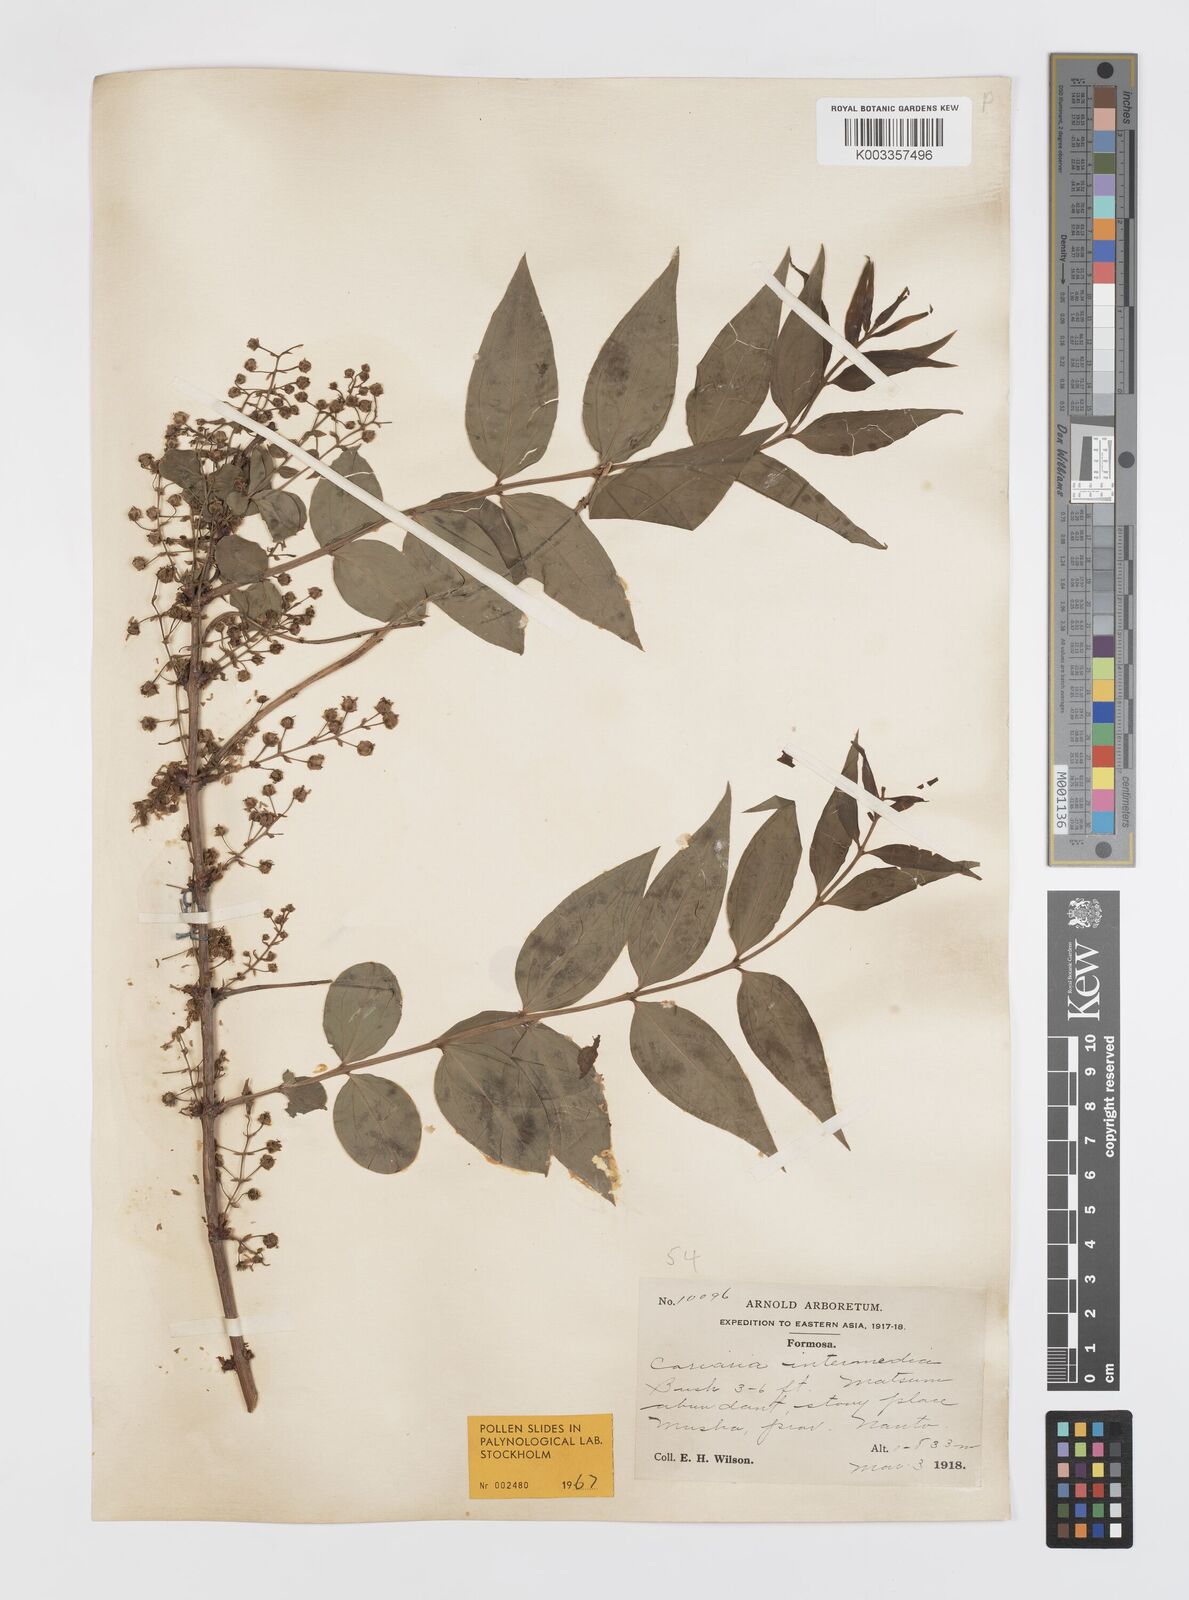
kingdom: Plantae
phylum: Tracheophyta
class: Magnoliopsida
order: Cucurbitales
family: Coriariaceae
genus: Coriaria
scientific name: Coriaria japonica
